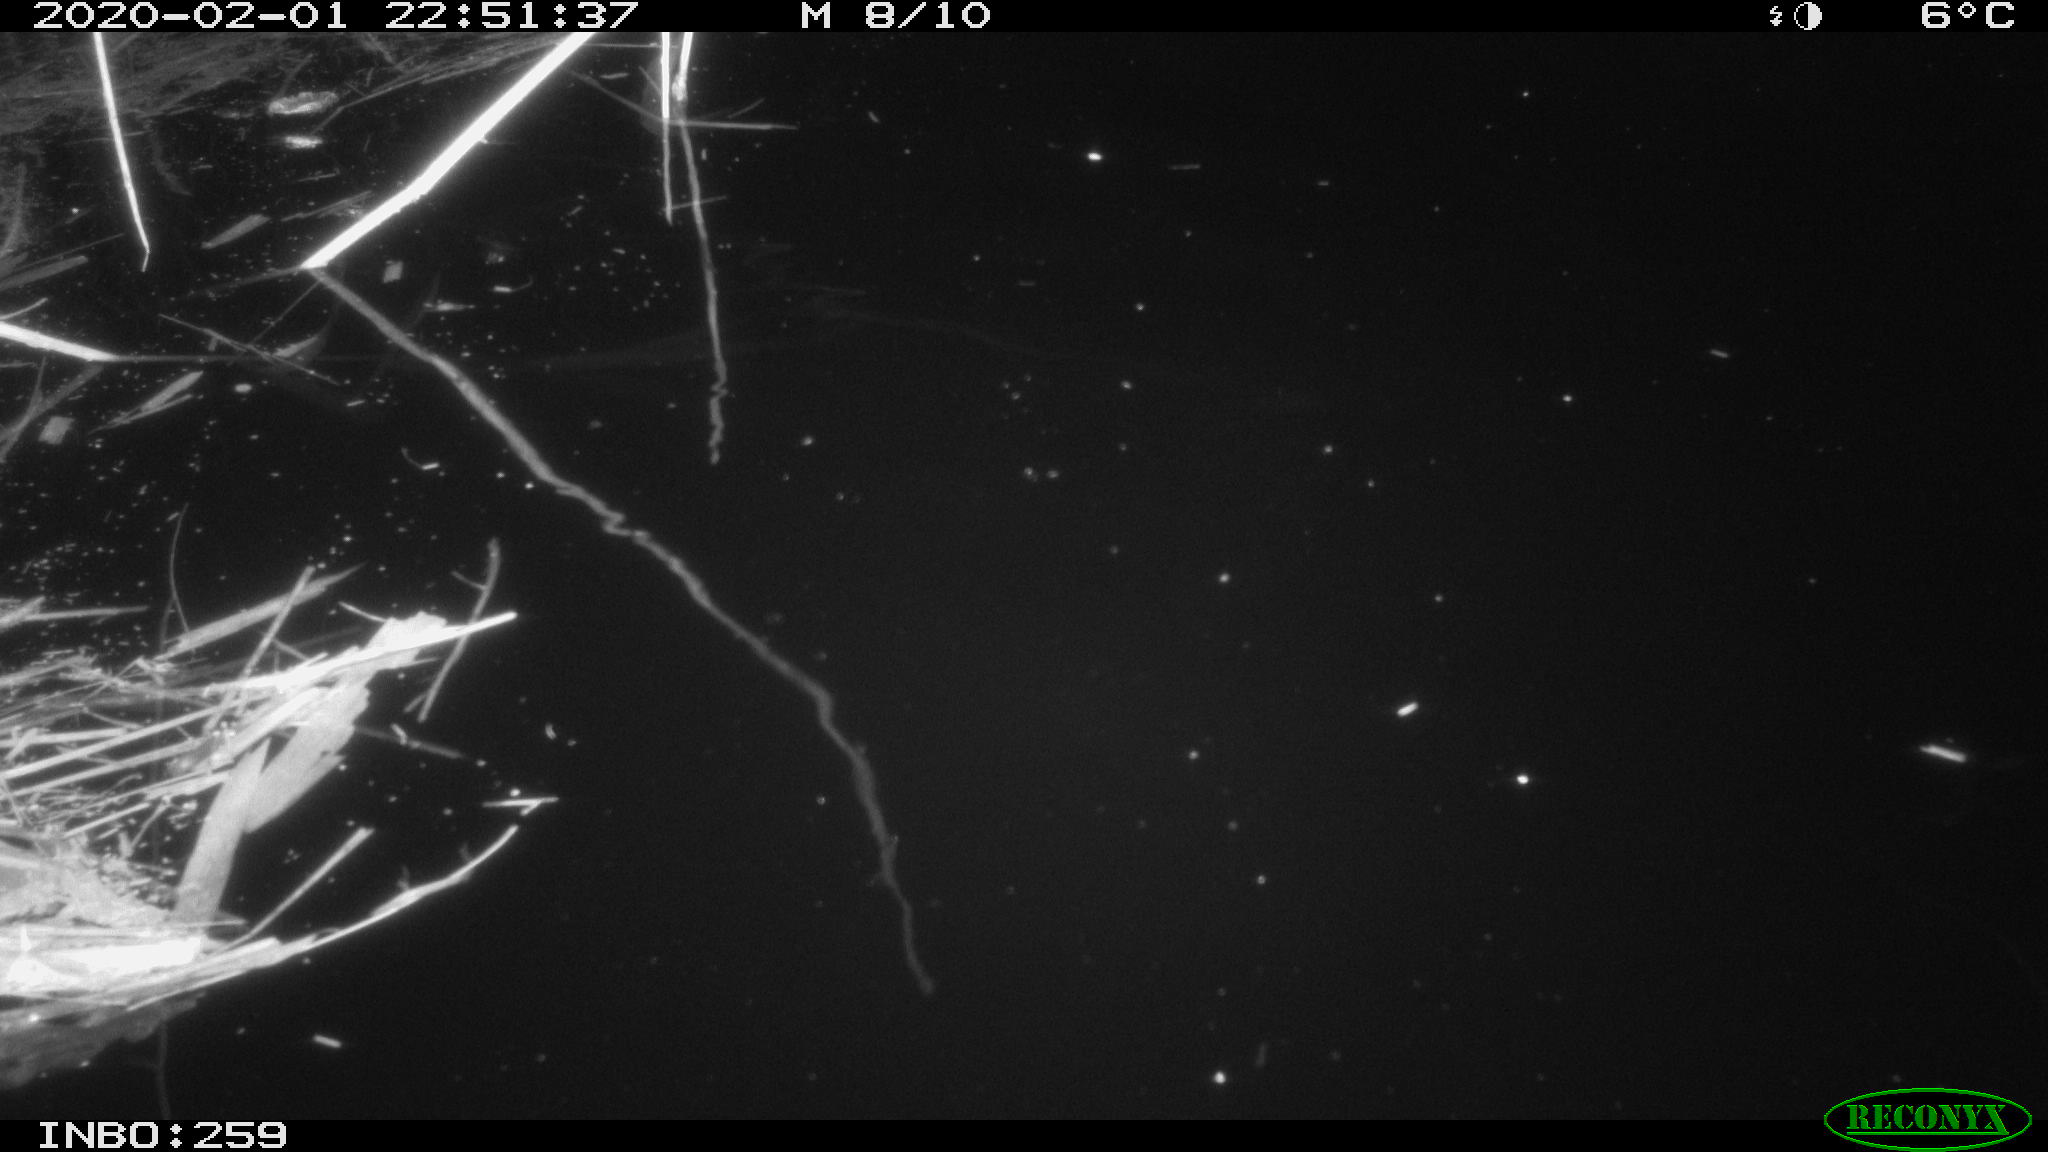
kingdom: Animalia
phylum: Chordata
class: Mammalia
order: Rodentia
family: Muridae
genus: Rattus
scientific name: Rattus norvegicus
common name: Brown rat
